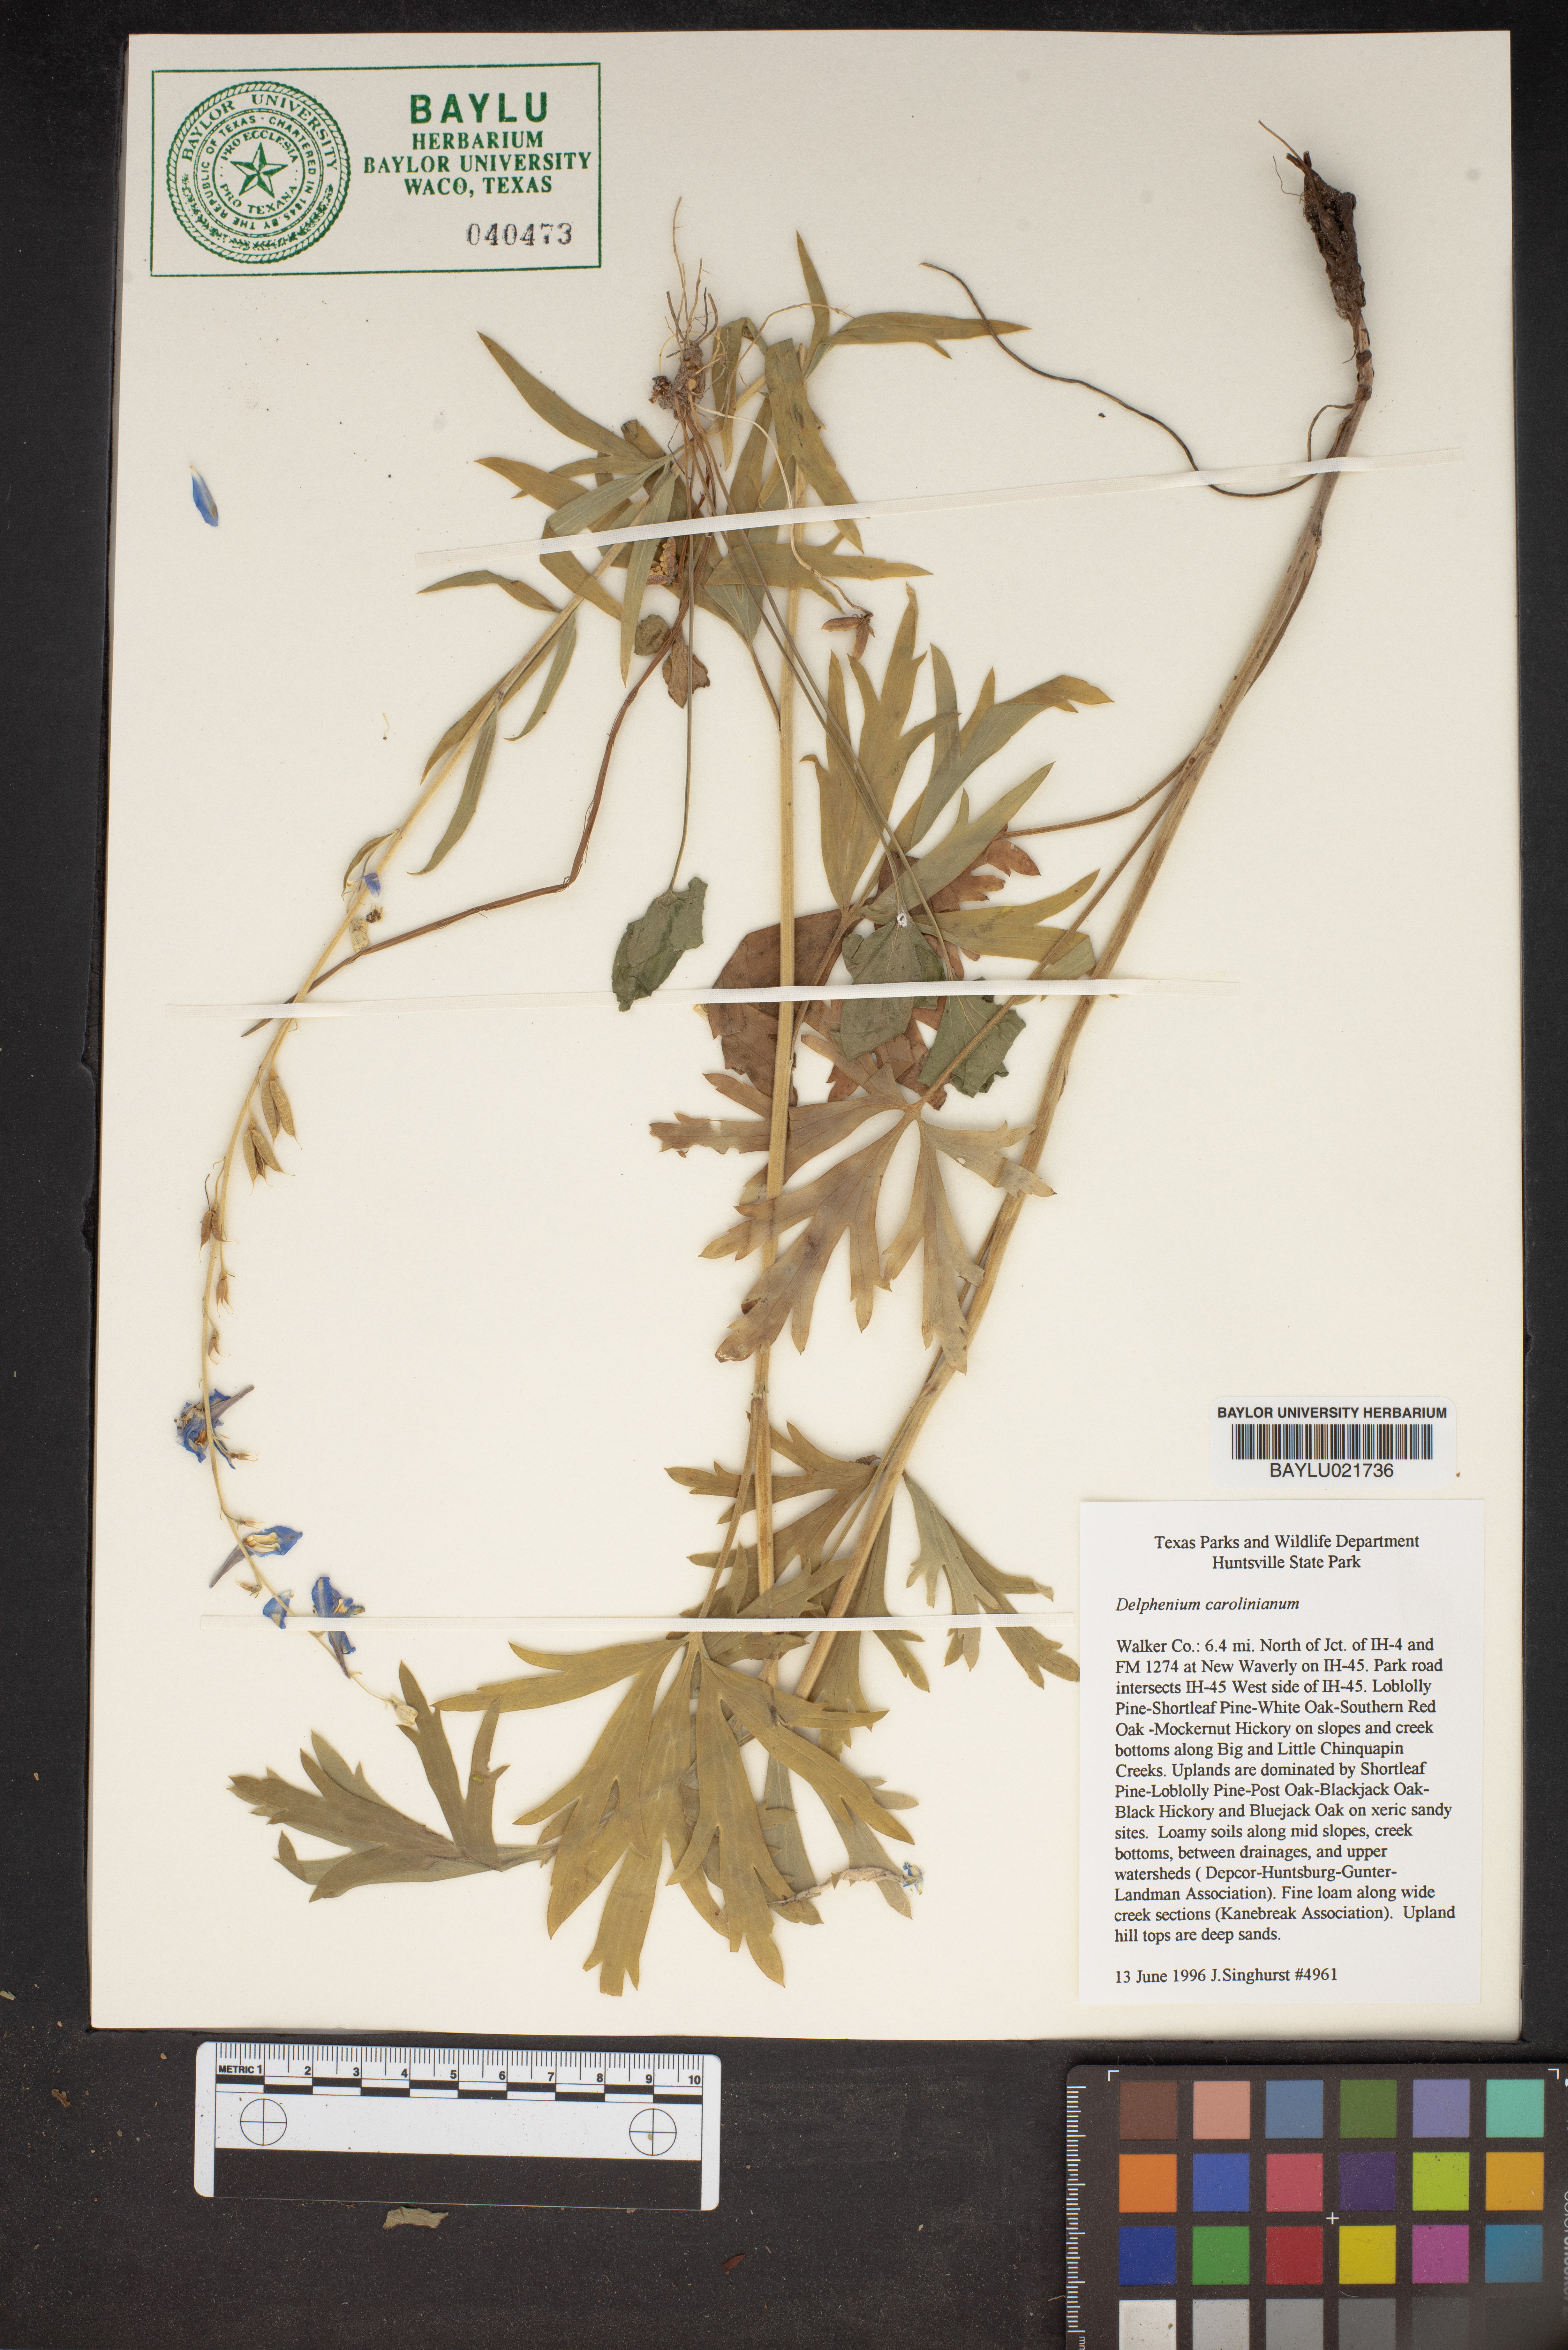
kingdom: Plantae
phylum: Tracheophyta
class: Magnoliopsida
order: Ranunculales
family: Ranunculaceae
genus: Delphinium
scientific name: Delphinium carolinianum
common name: Carolina larkspur
